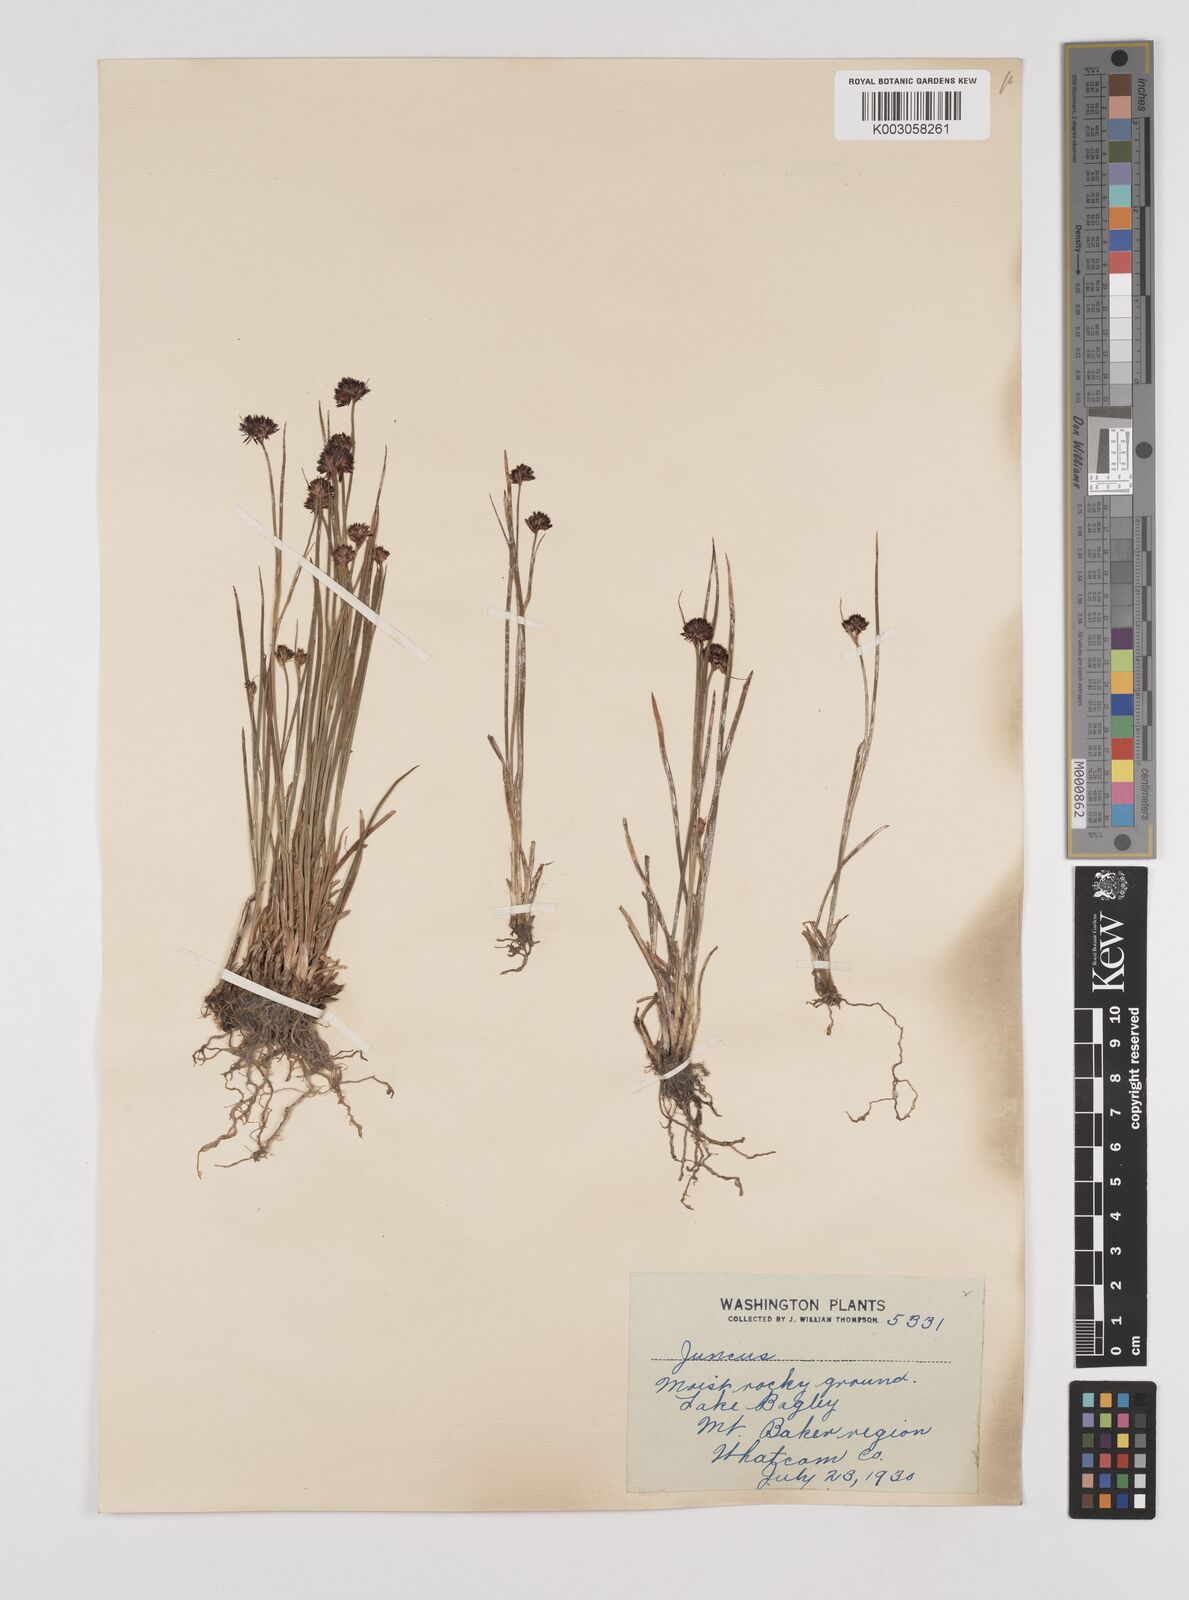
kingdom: Plantae
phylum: Tracheophyta
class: Liliopsida
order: Poales
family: Juncaceae
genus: Juncus
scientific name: Juncus
